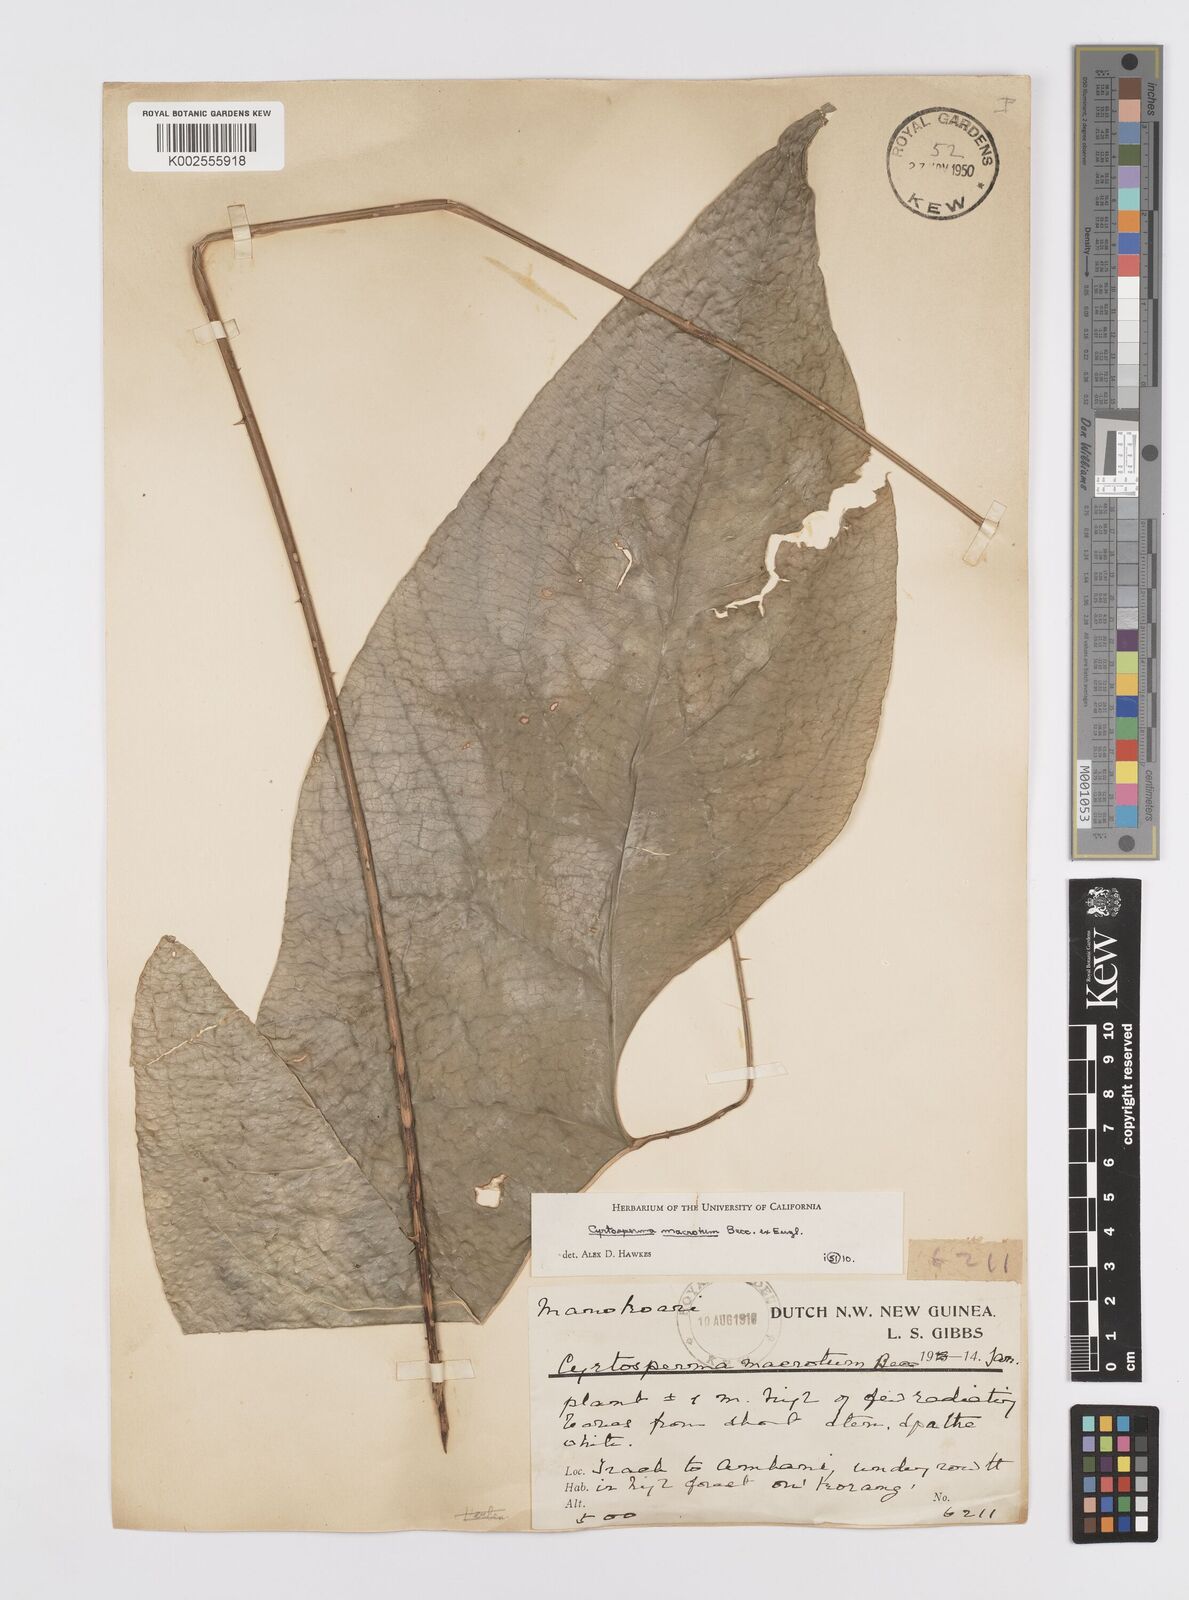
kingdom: Plantae
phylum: Tracheophyta
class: Liliopsida
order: Alismatales
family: Araceae
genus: Cyrtosperma
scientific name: Cyrtosperma macrotum
